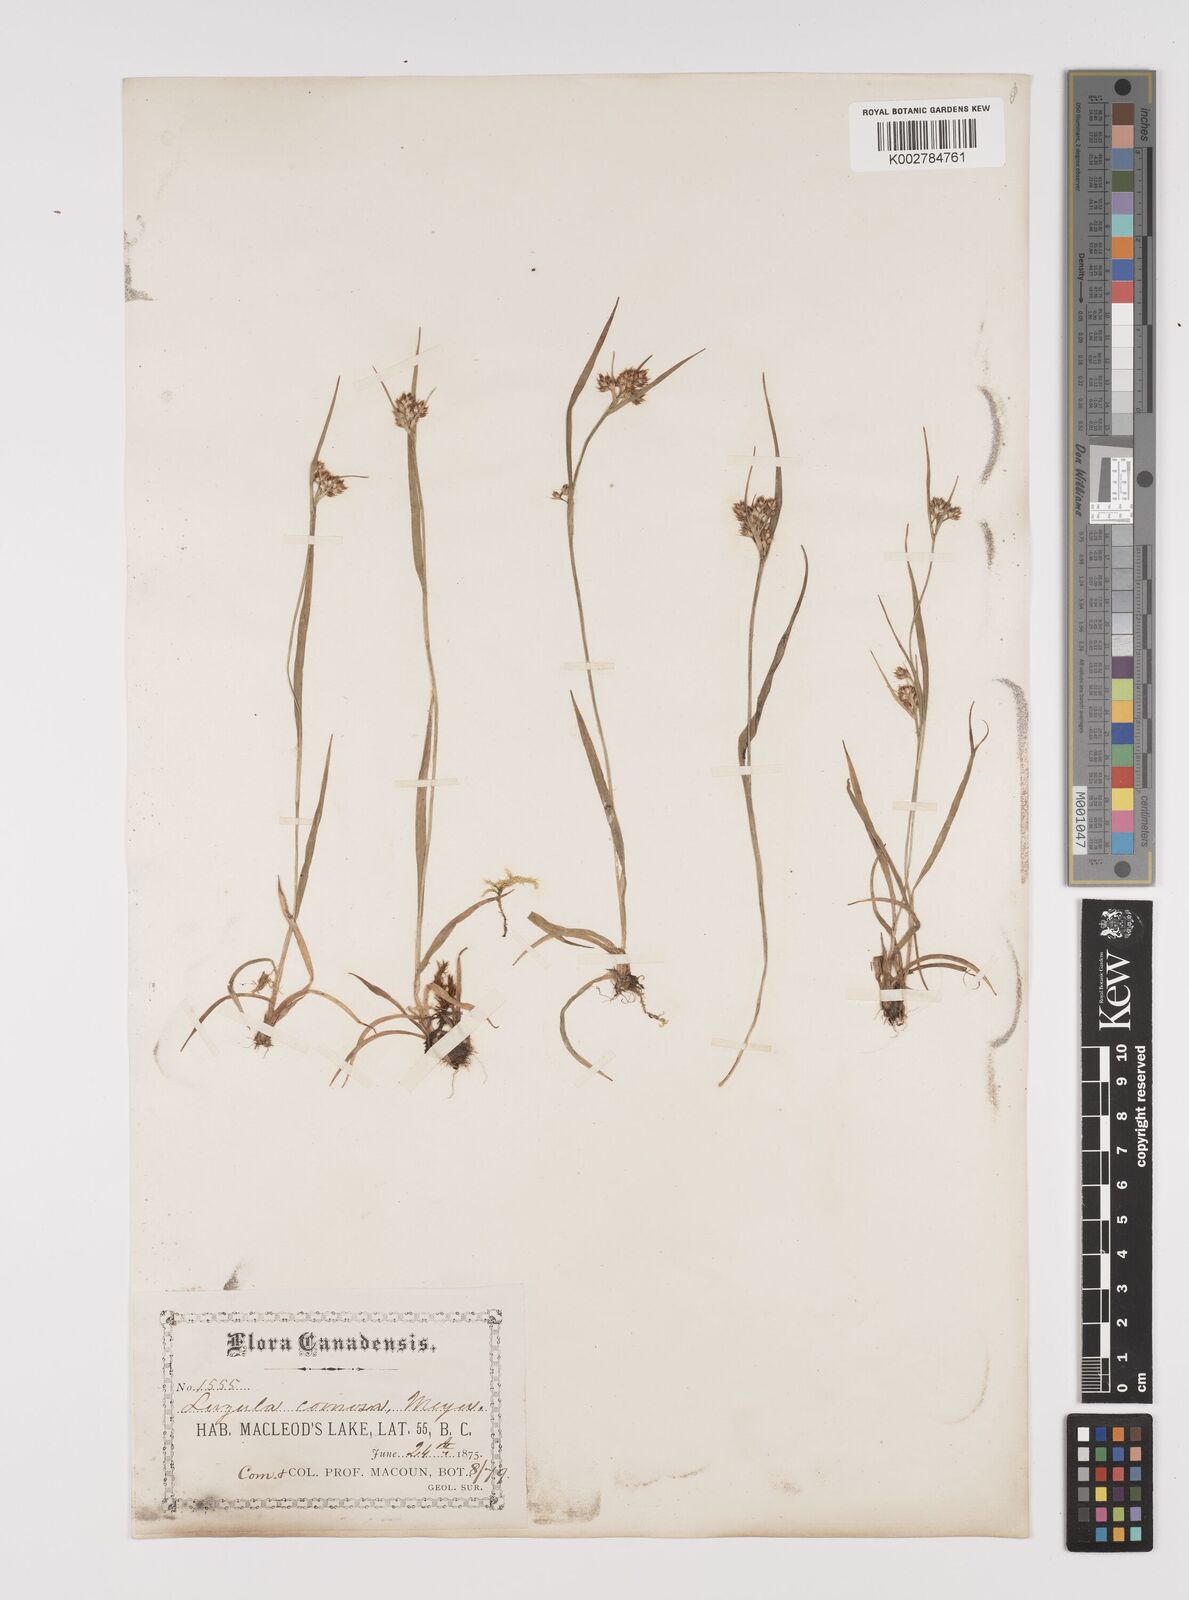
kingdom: Plantae
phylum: Tracheophyta
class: Liliopsida
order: Poales
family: Juncaceae
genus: Luzula
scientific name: Luzula comosa
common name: Pacific woodrush
